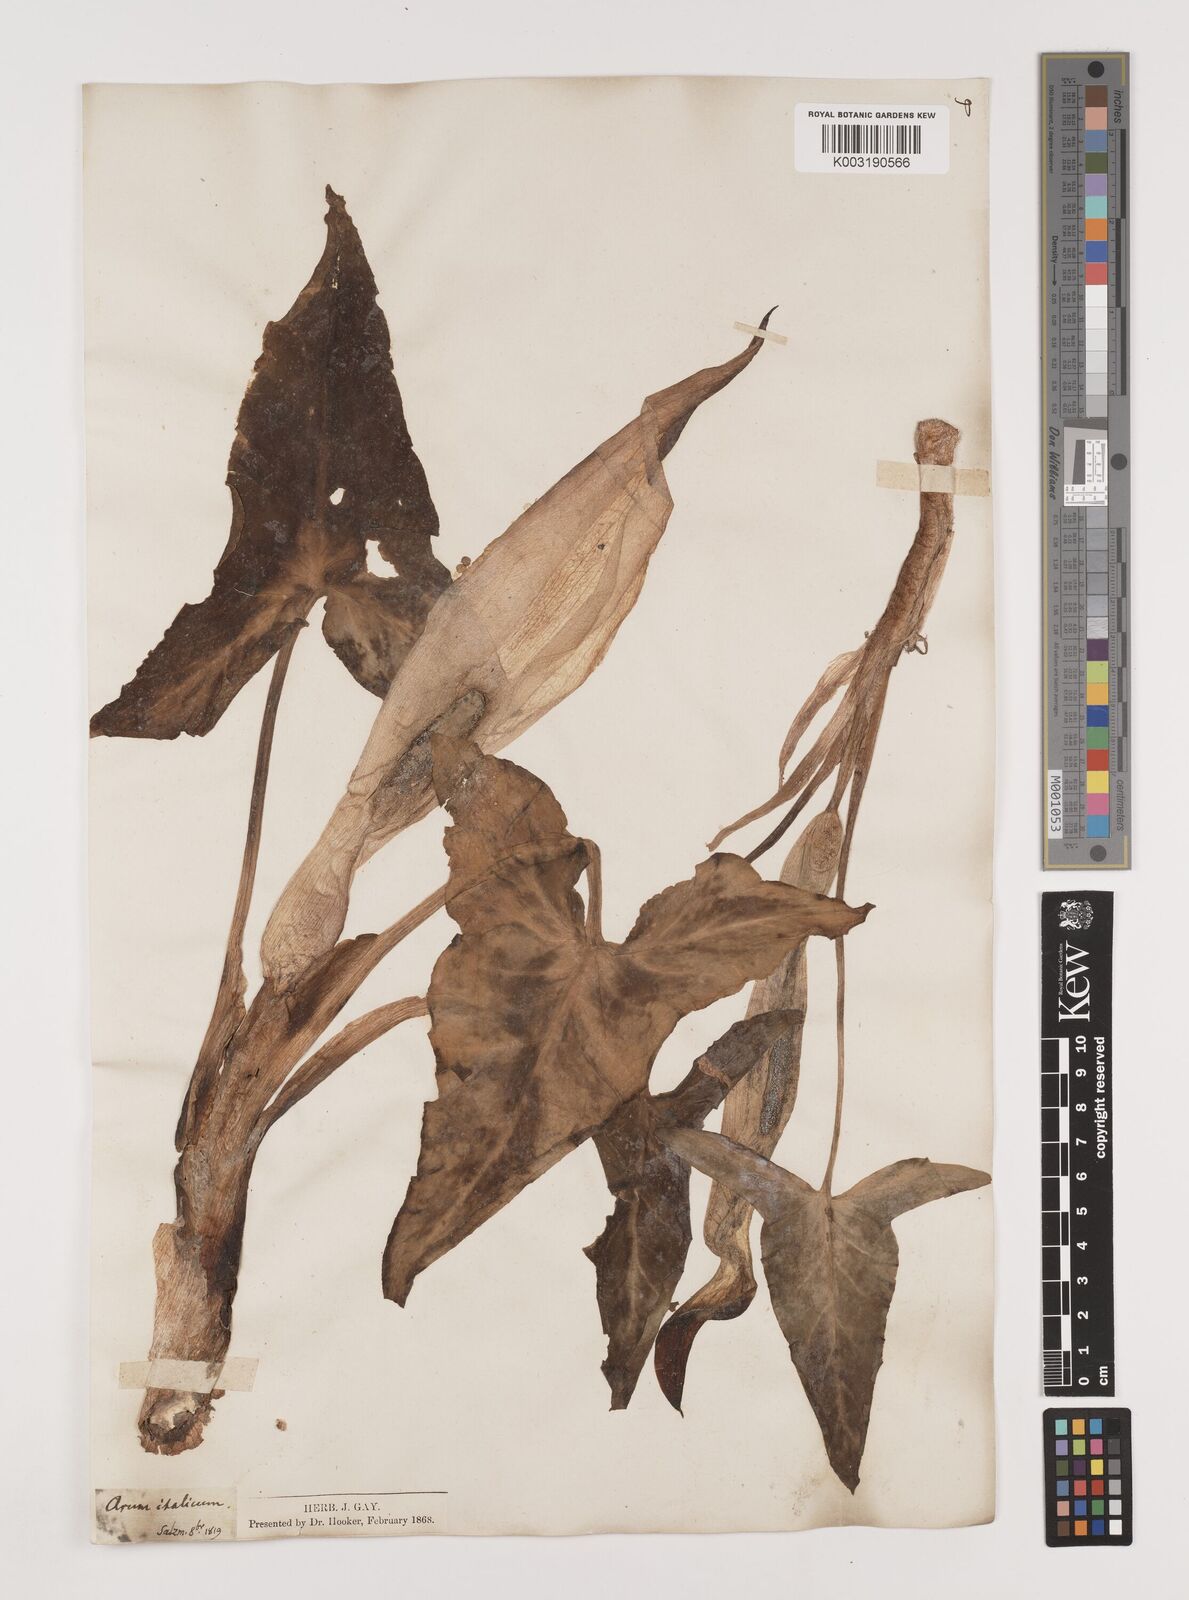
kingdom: Plantae
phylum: Tracheophyta
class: Liliopsida
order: Alismatales
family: Araceae
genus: Arum
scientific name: Arum italicum
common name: Italian lords-and-ladies
